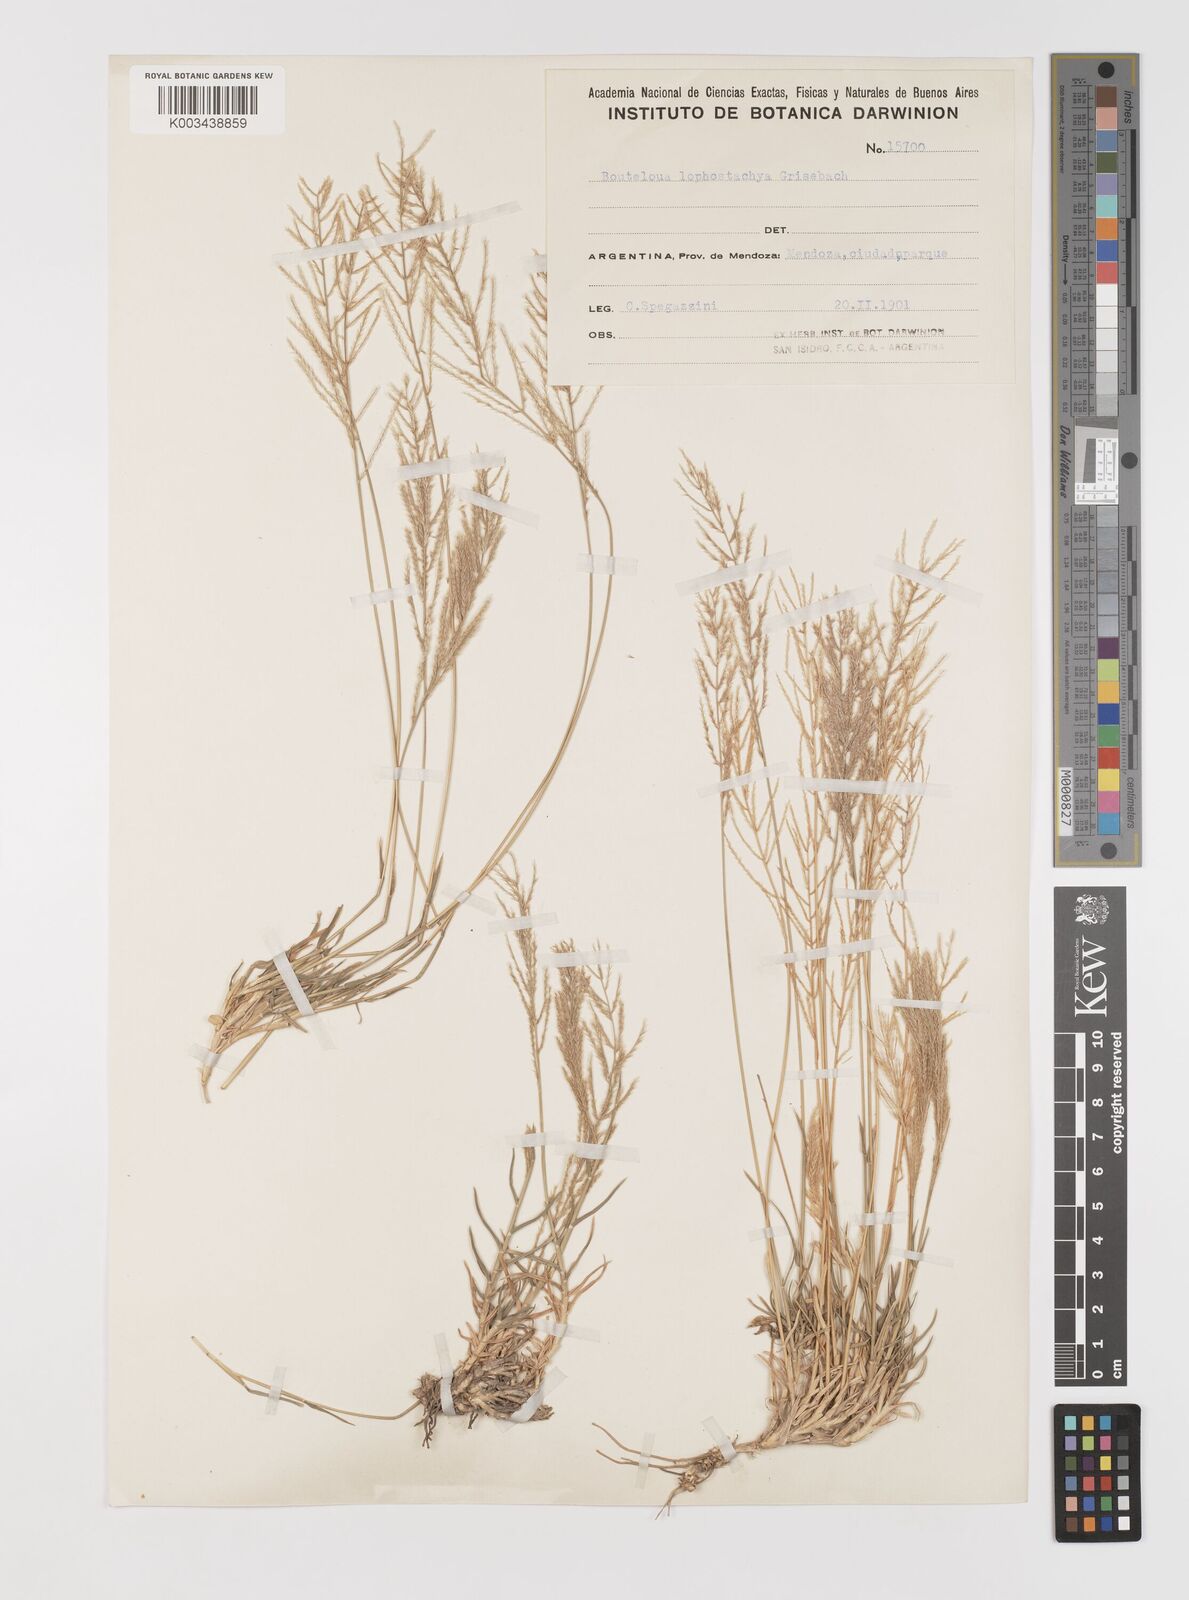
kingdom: Plantae
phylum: Tracheophyta
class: Liliopsida
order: Poales
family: Poaceae
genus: Neobouteloua
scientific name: Neobouteloua lophostachya
